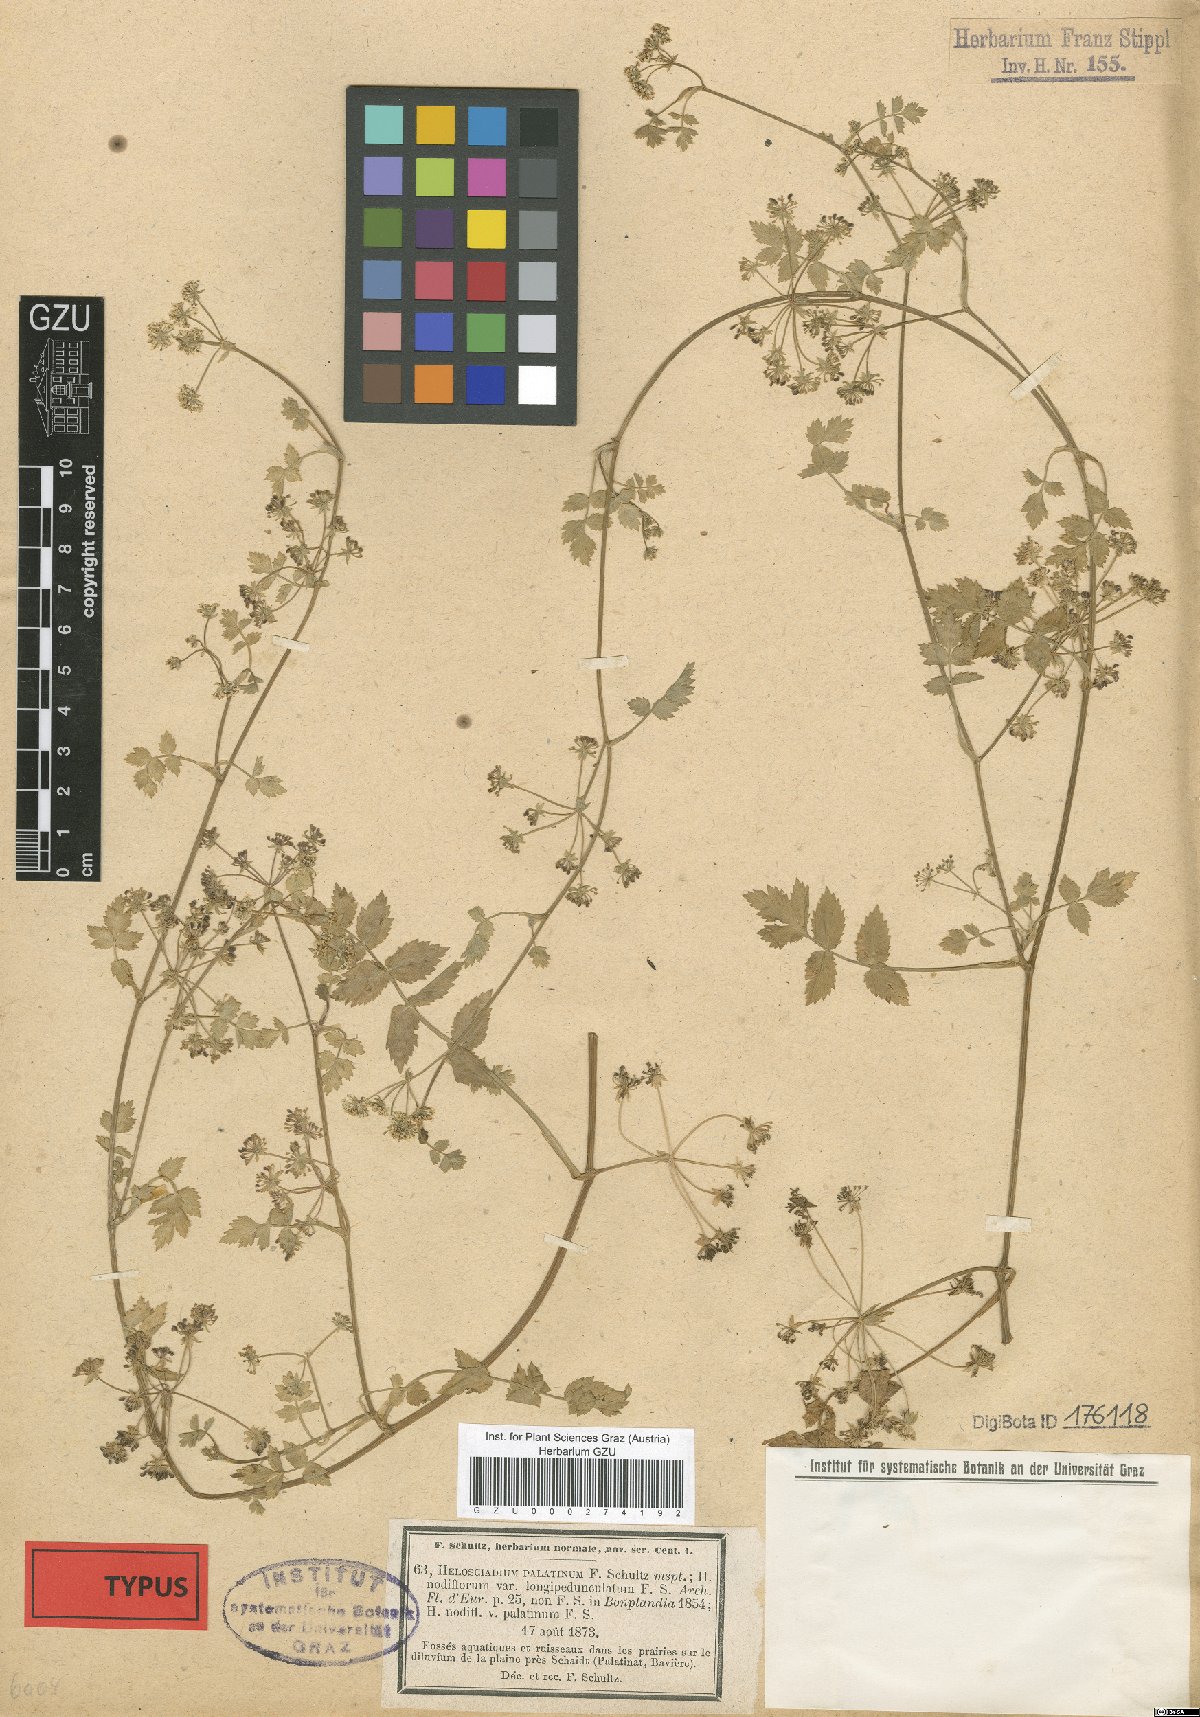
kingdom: Plantae
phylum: Tracheophyta
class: Magnoliopsida
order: Apiales
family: Apiaceae
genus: Helosciadium
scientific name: Helosciadium longipedunculatum
